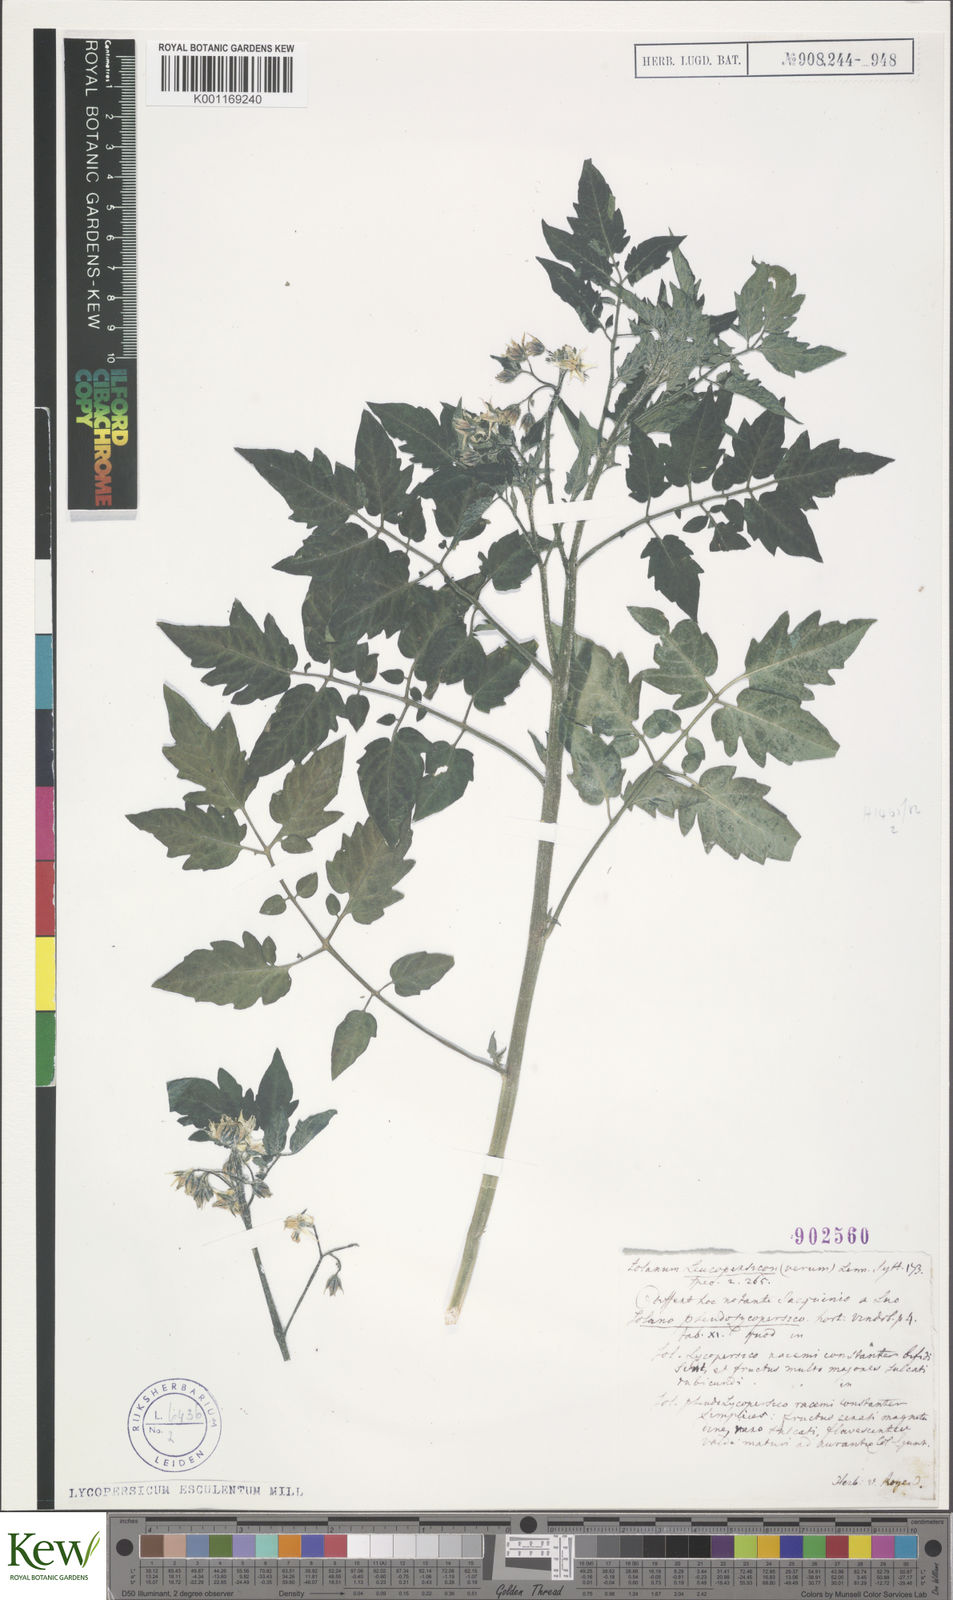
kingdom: Plantae
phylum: Tracheophyta
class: Magnoliopsida
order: Solanales
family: Solanaceae
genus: Solanum
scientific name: Solanum lycopersicum
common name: Garden tomato
